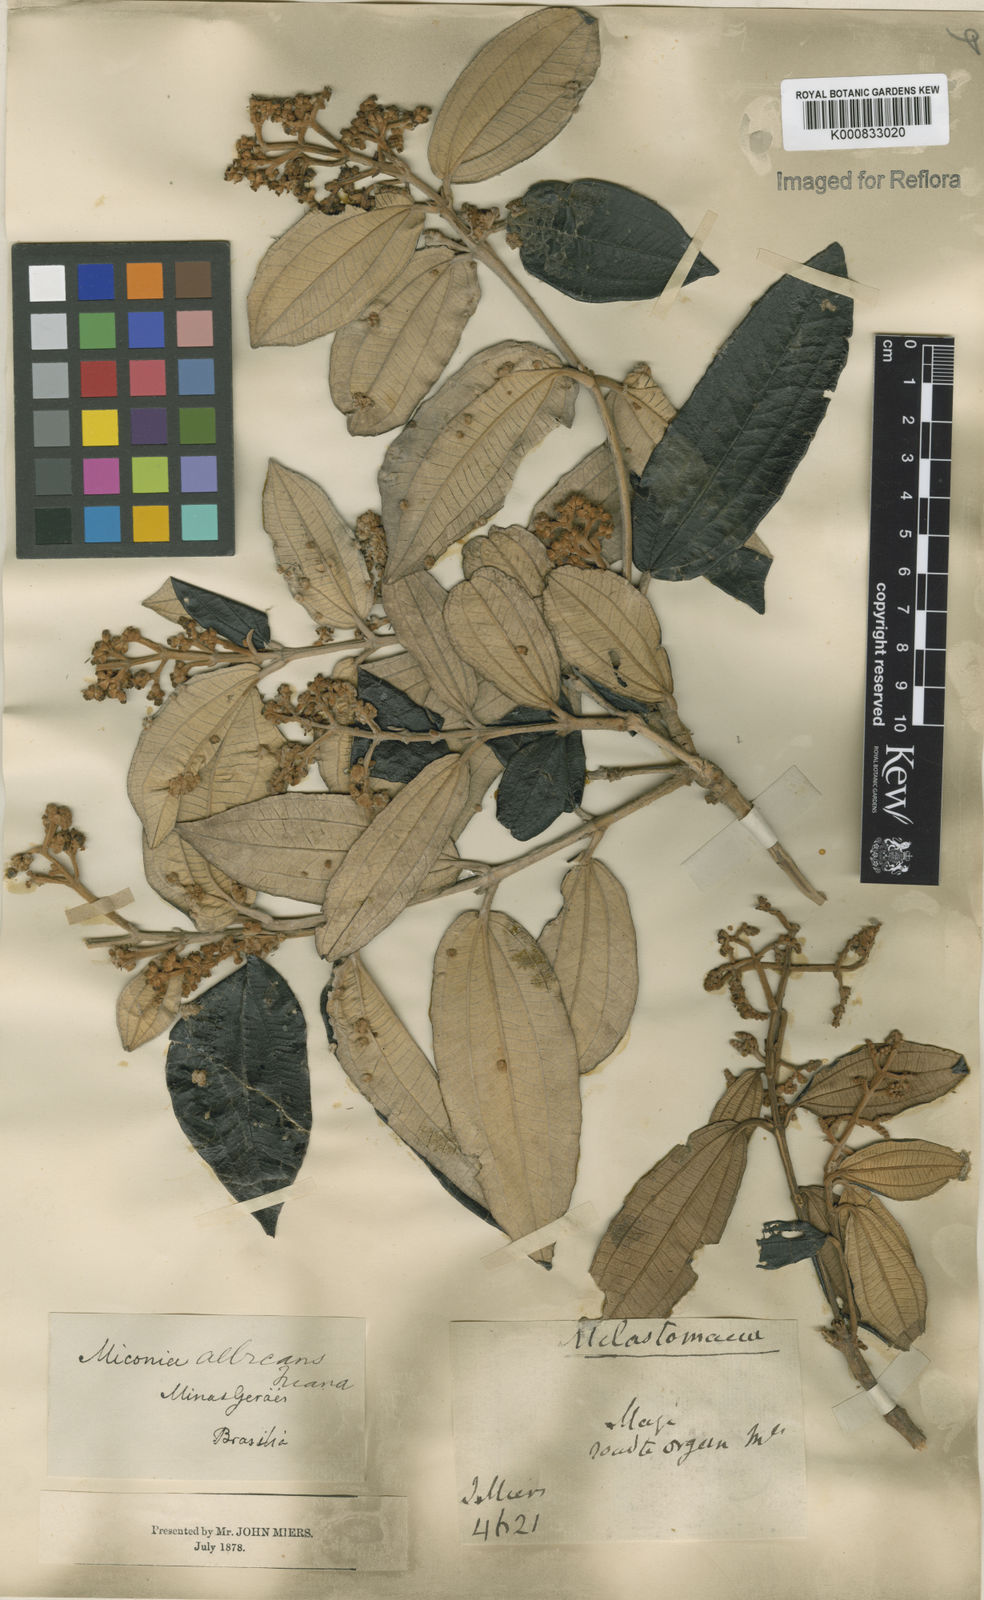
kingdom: Plantae
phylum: Tracheophyta
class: Magnoliopsida
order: Myrtales
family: Melastomataceae
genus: Miconia
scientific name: Miconia albicans
